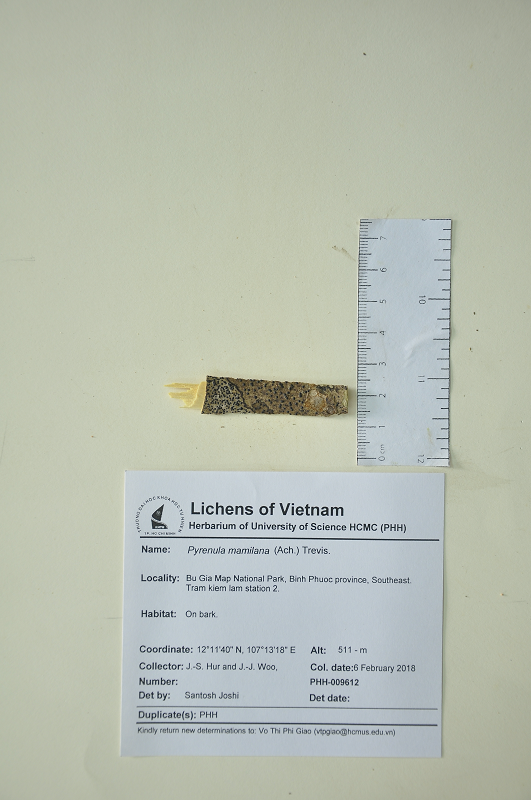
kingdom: Fungi
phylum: Ascomycota
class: Eurotiomycetes
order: Pyrenulales
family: Pyrenulaceae
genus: Pyrenula
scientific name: Pyrenula mamillana
